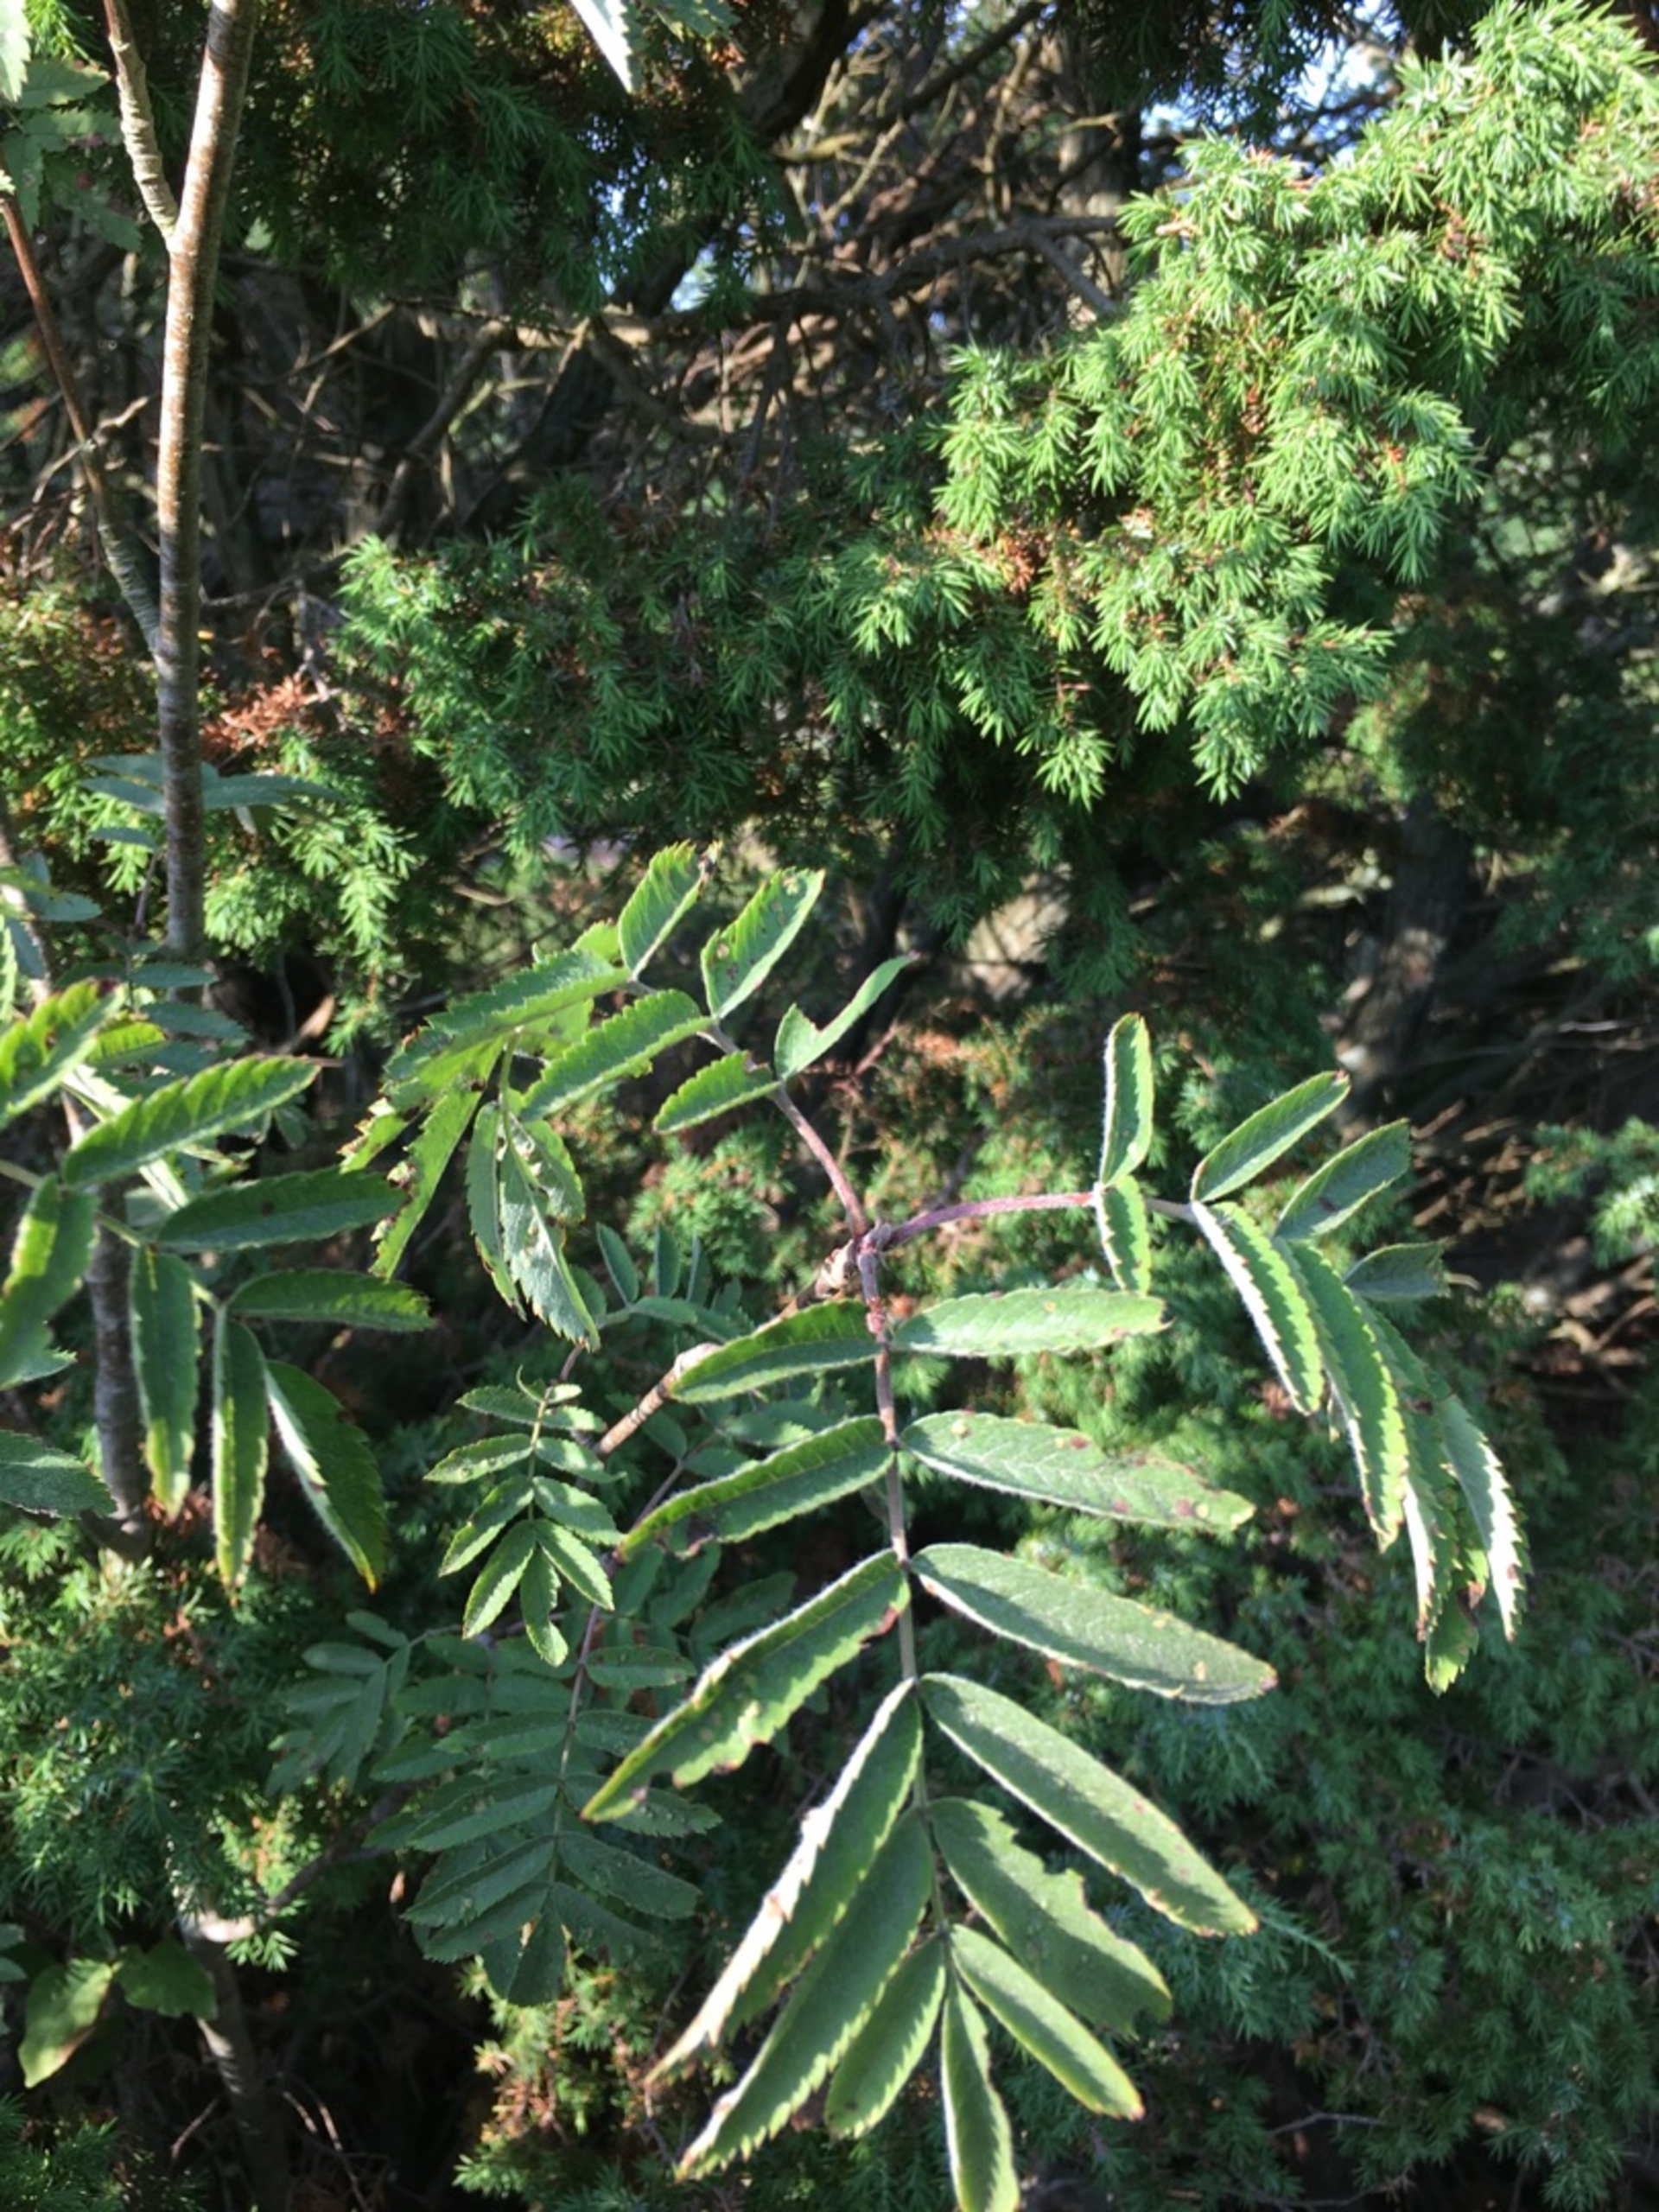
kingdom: Plantae
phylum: Tracheophyta
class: Magnoliopsida
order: Rosales
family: Rosaceae
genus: Sorbus
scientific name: Sorbus aucuparia
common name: Almindelig røn
